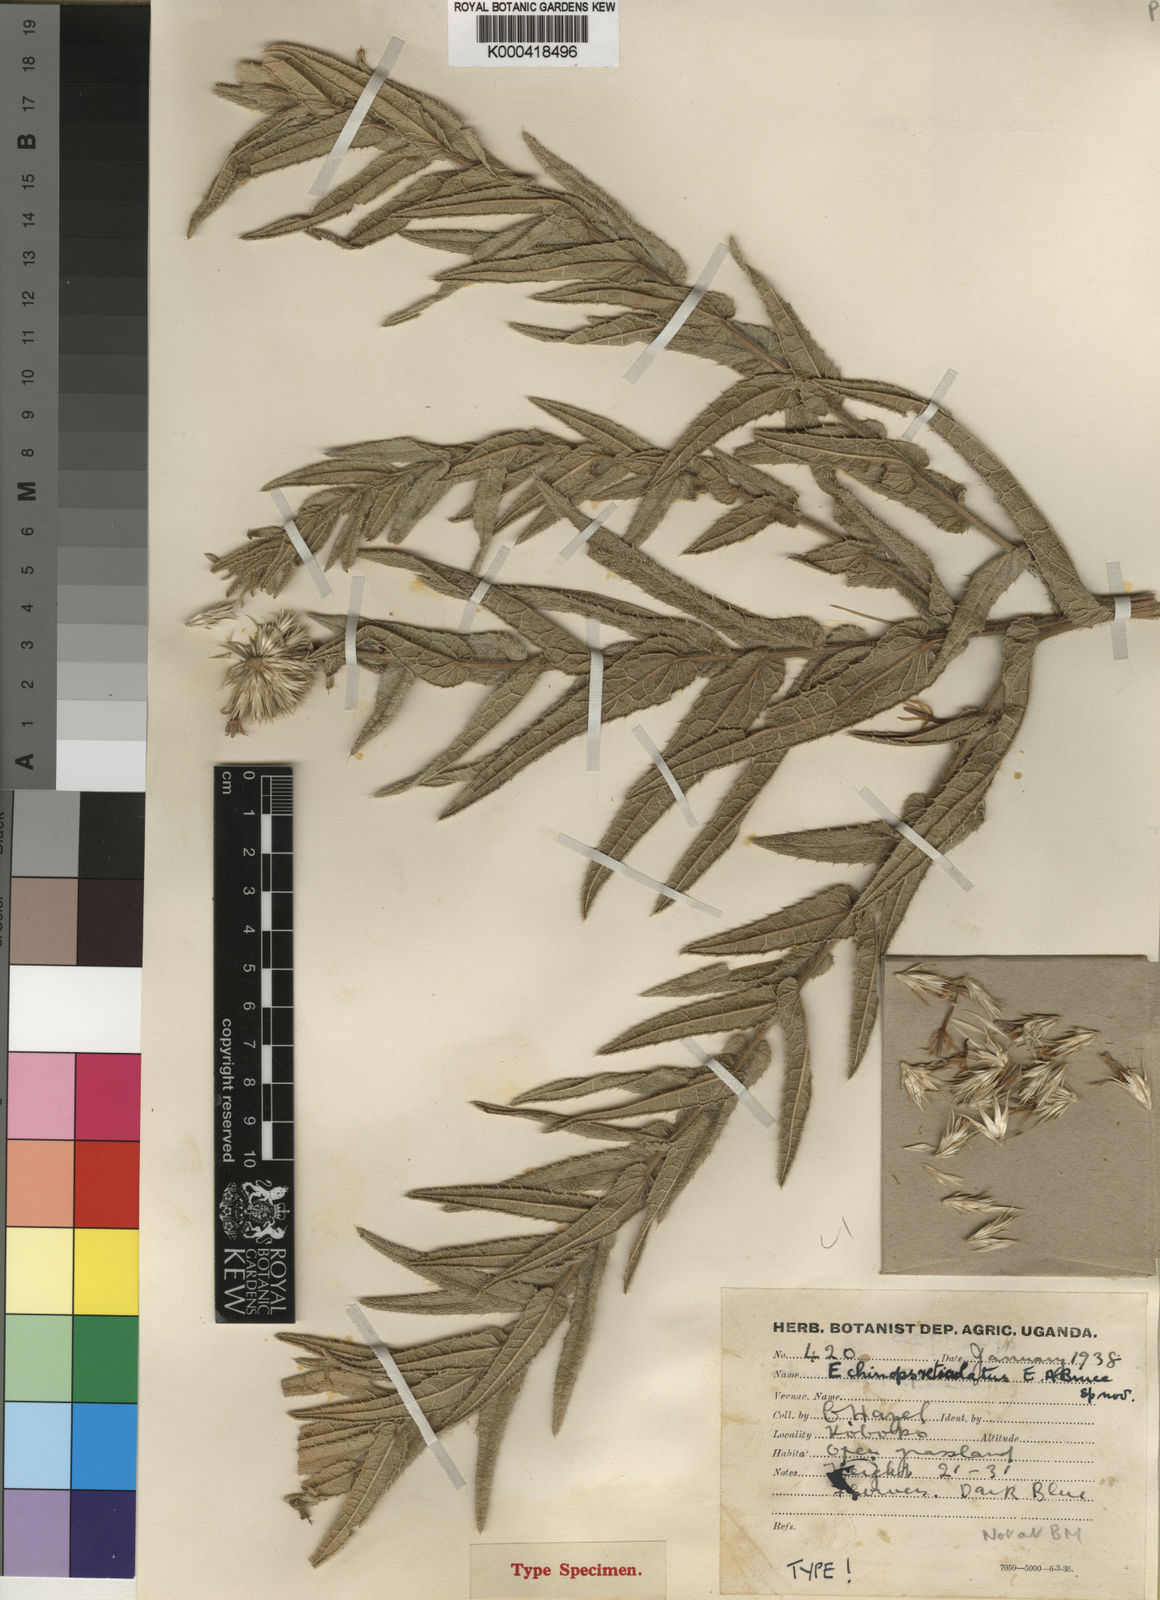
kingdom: Plantae
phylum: Tracheophyta
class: Magnoliopsida
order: Asterales
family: Asteraceae
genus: Echinops
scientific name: Echinops reticulatus
